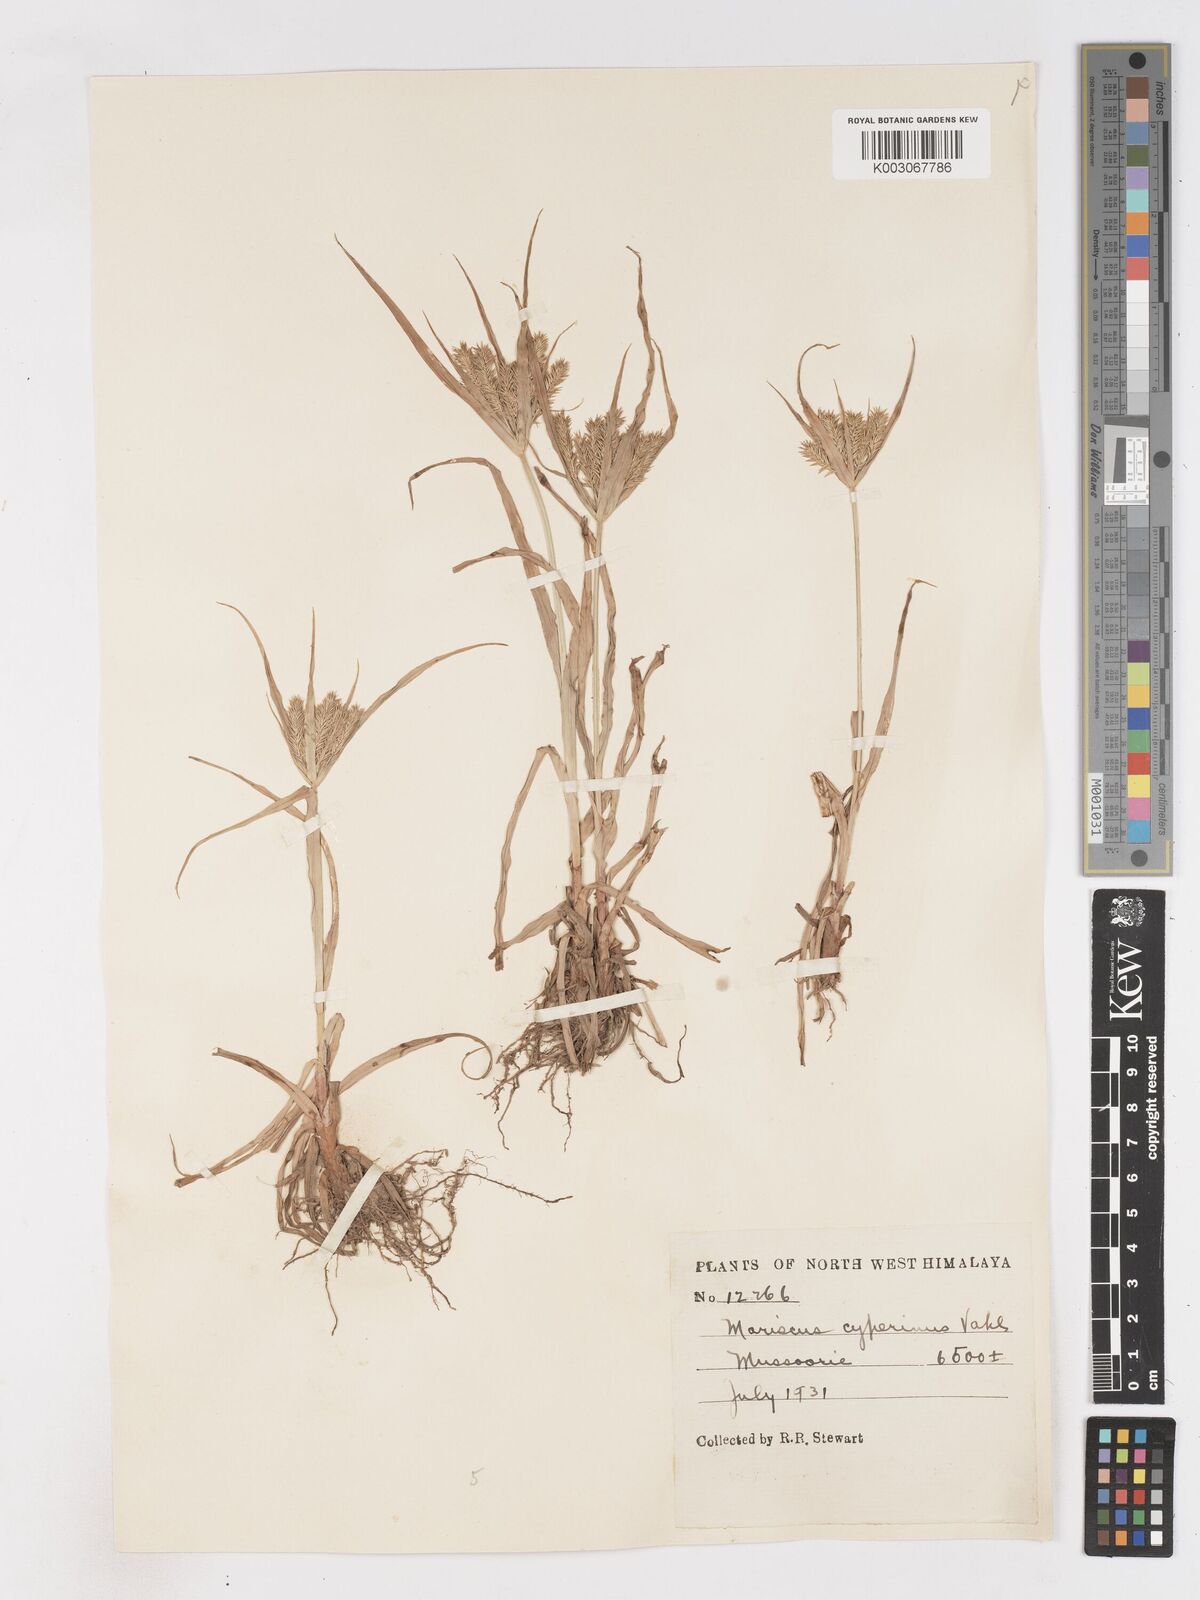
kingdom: Plantae
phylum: Tracheophyta
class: Liliopsida
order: Poales
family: Cyperaceae
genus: Cyperus
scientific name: Cyperus cyperoides
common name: Pacific island flat sedge
